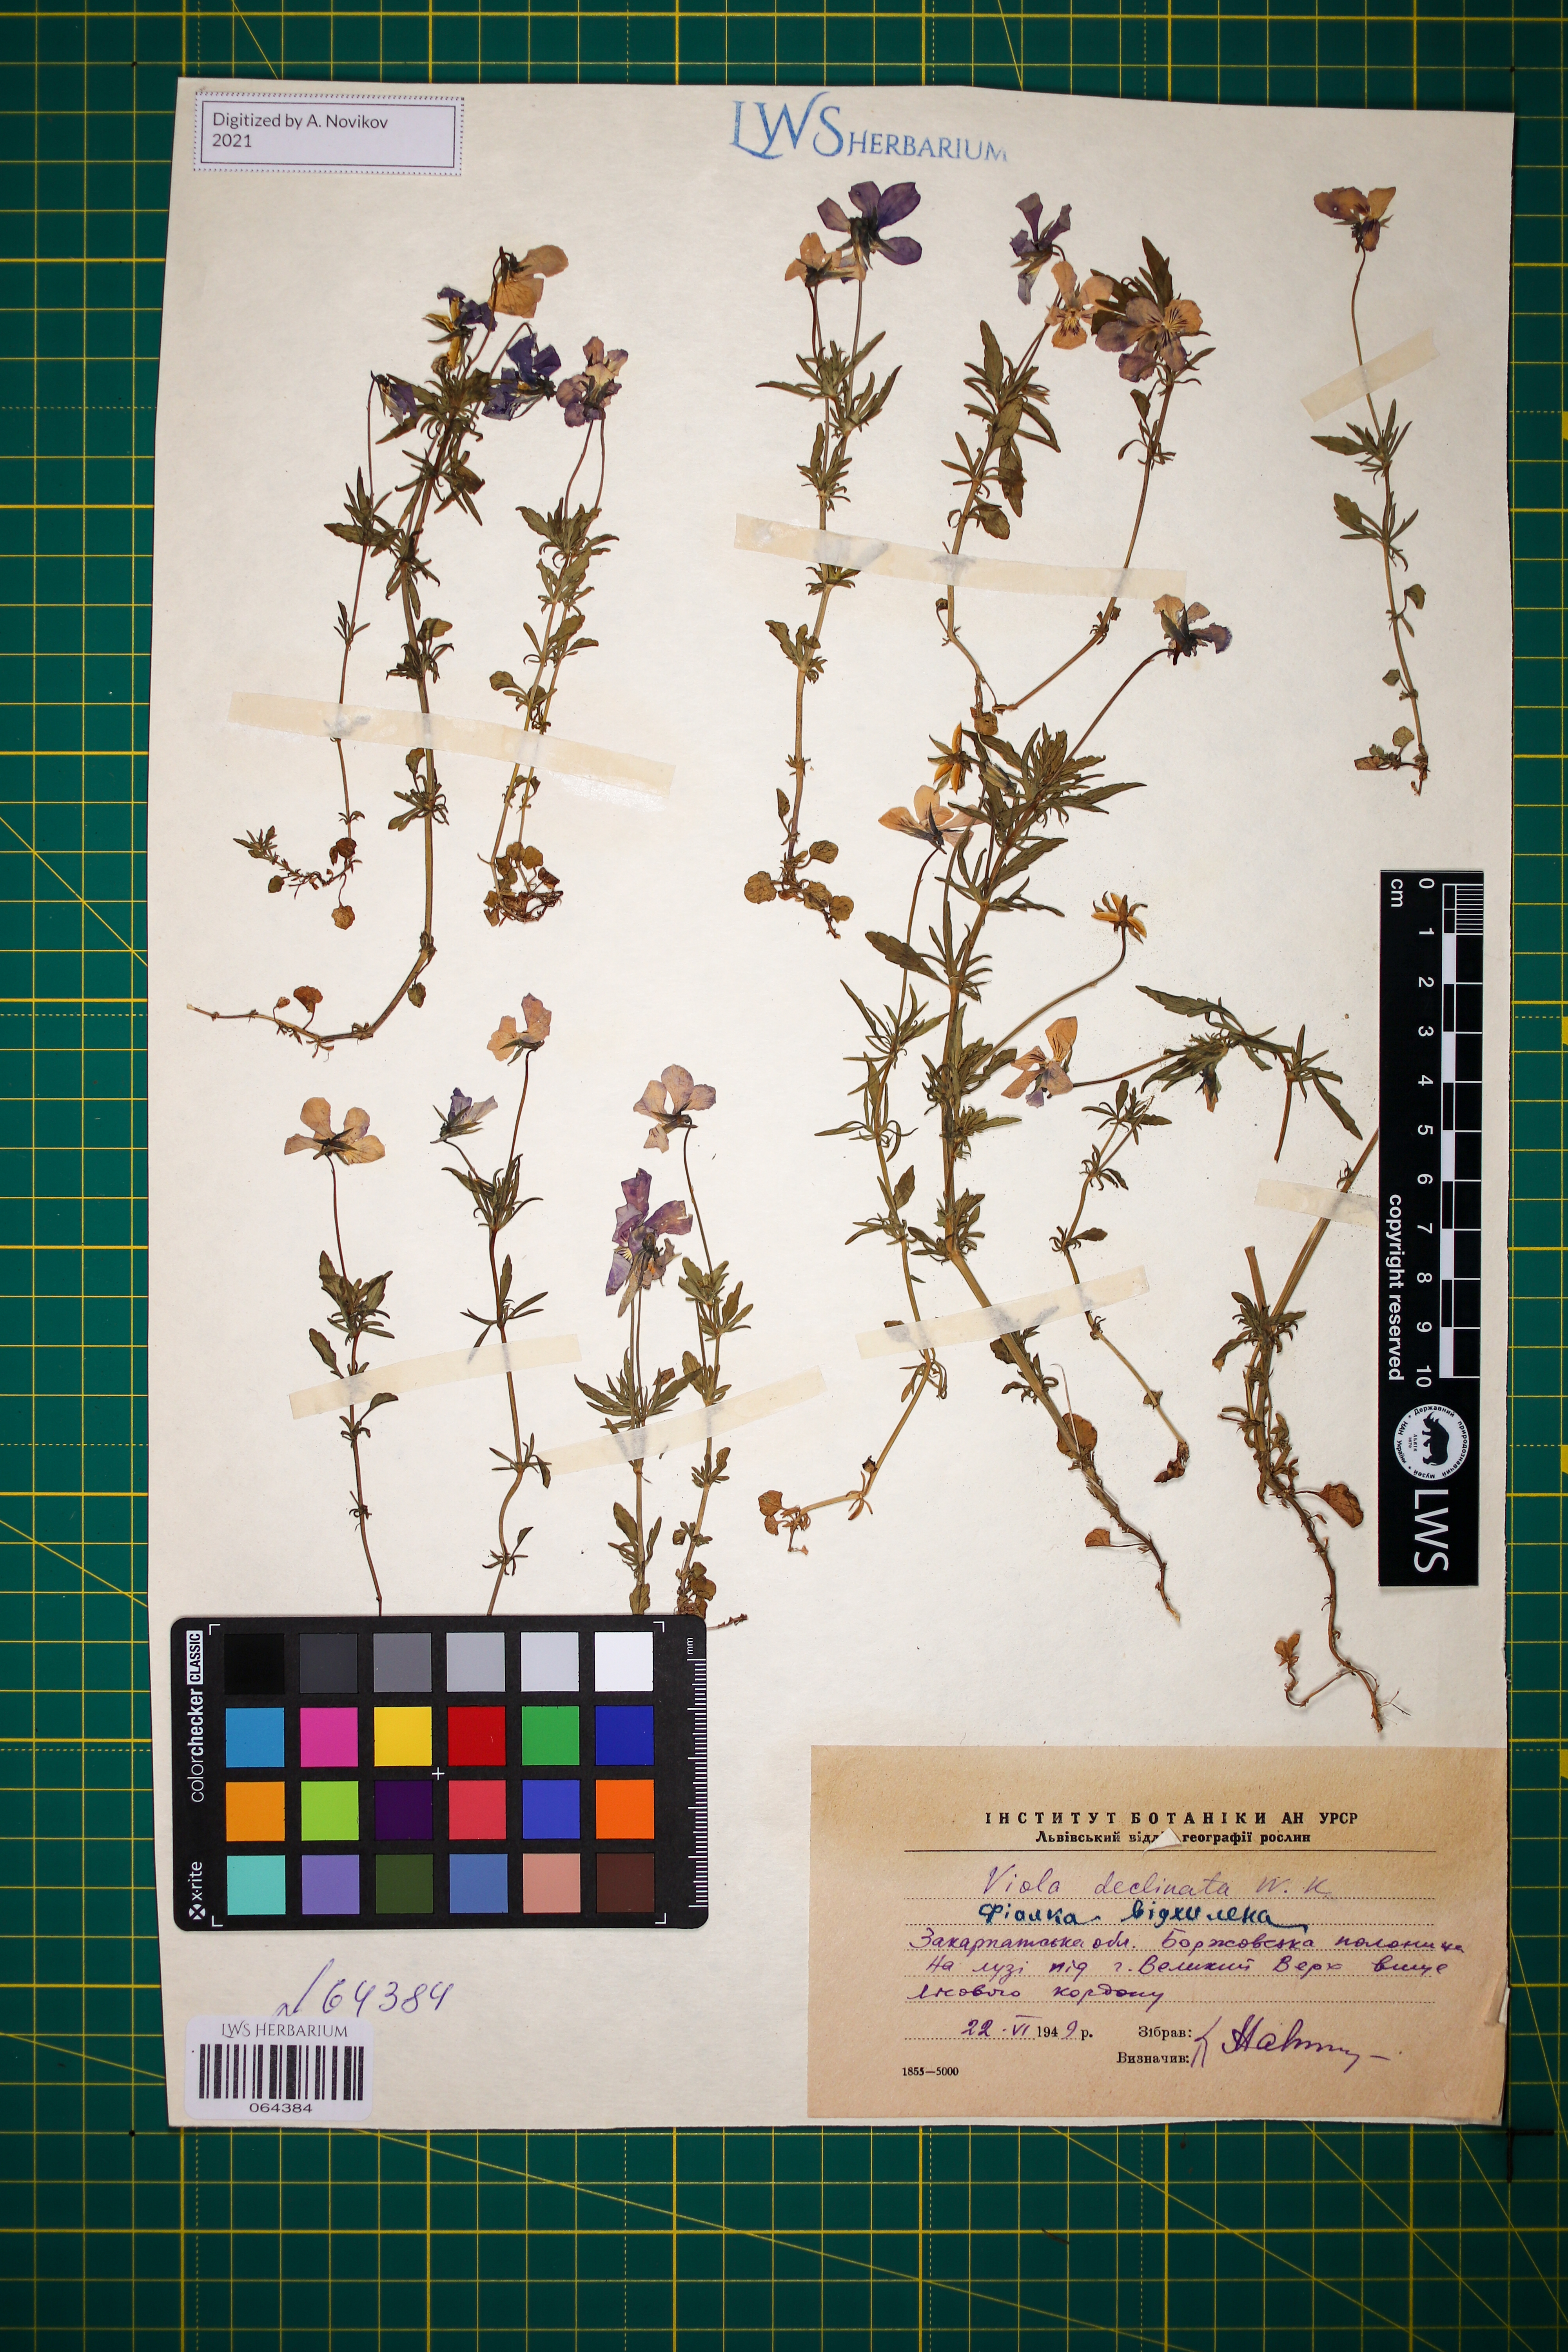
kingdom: Plantae
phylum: Tracheophyta
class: Magnoliopsida
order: Malpighiales
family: Violaceae
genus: Viola
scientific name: Viola declinata
